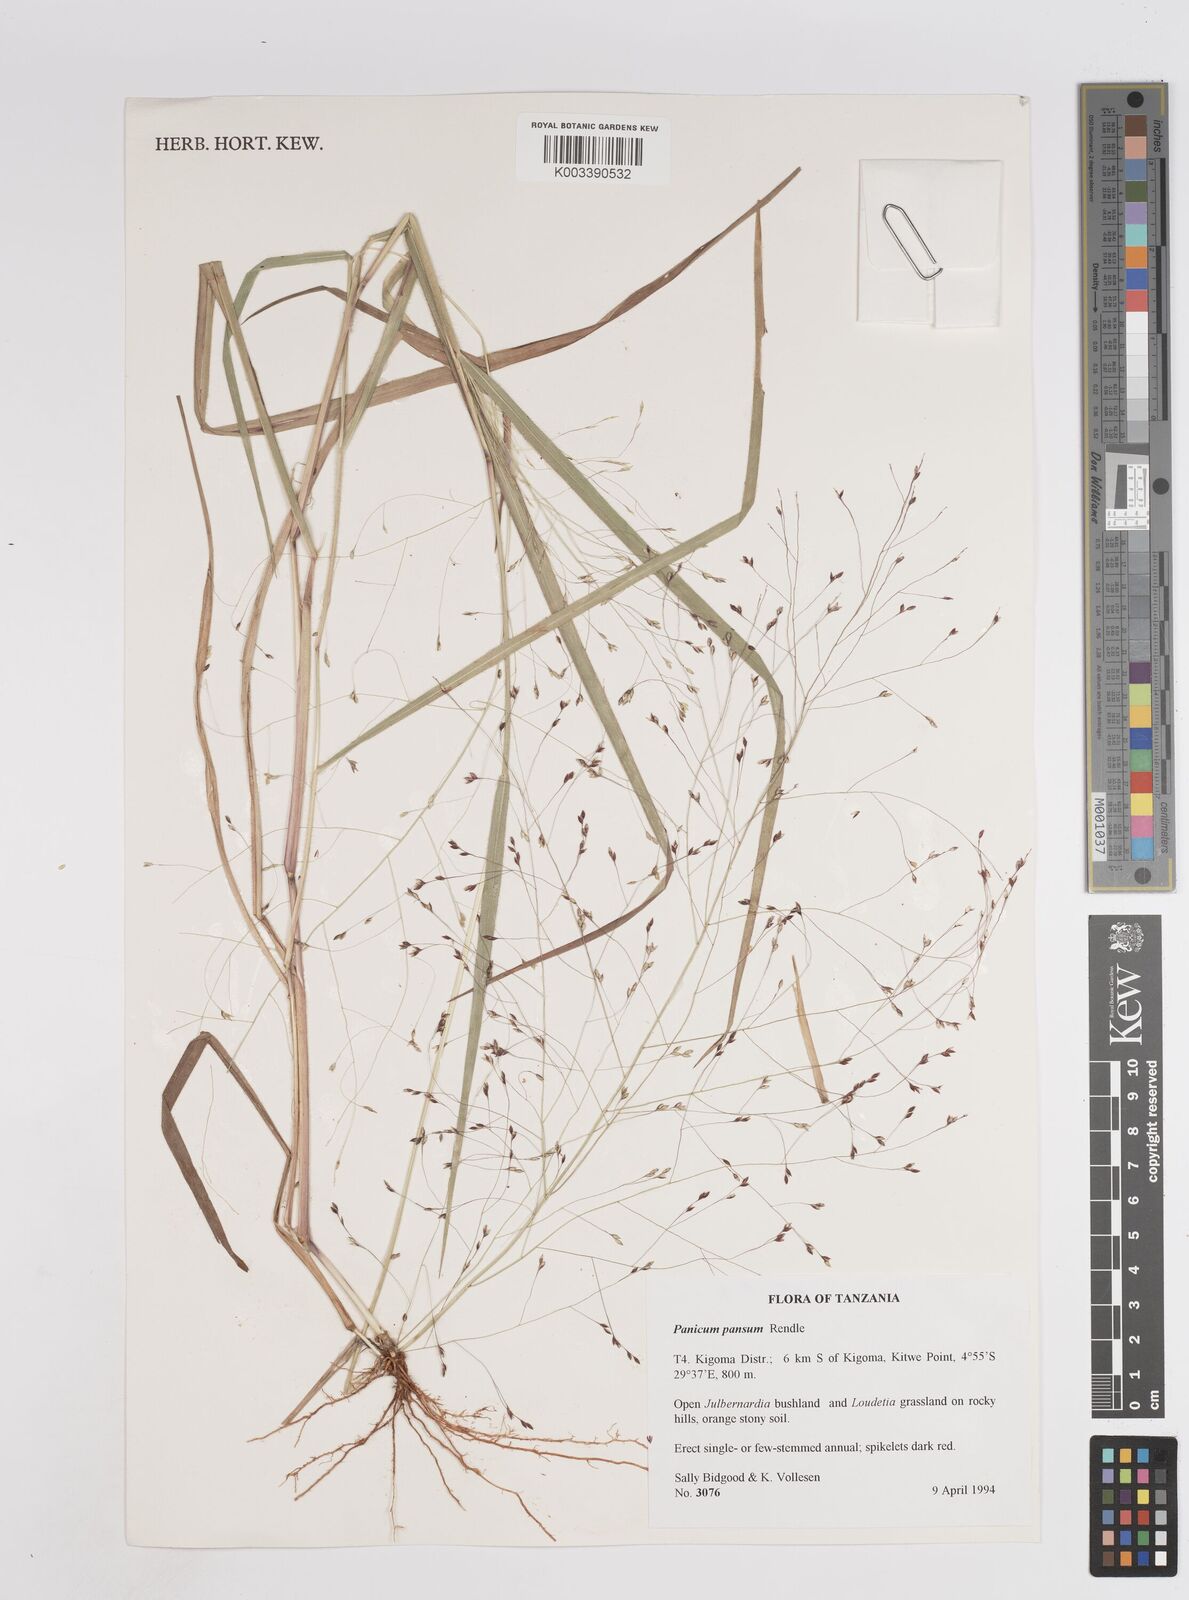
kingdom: Plantae
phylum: Tracheophyta
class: Liliopsida
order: Poales
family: Poaceae
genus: Panicum
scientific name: Panicum pansum
